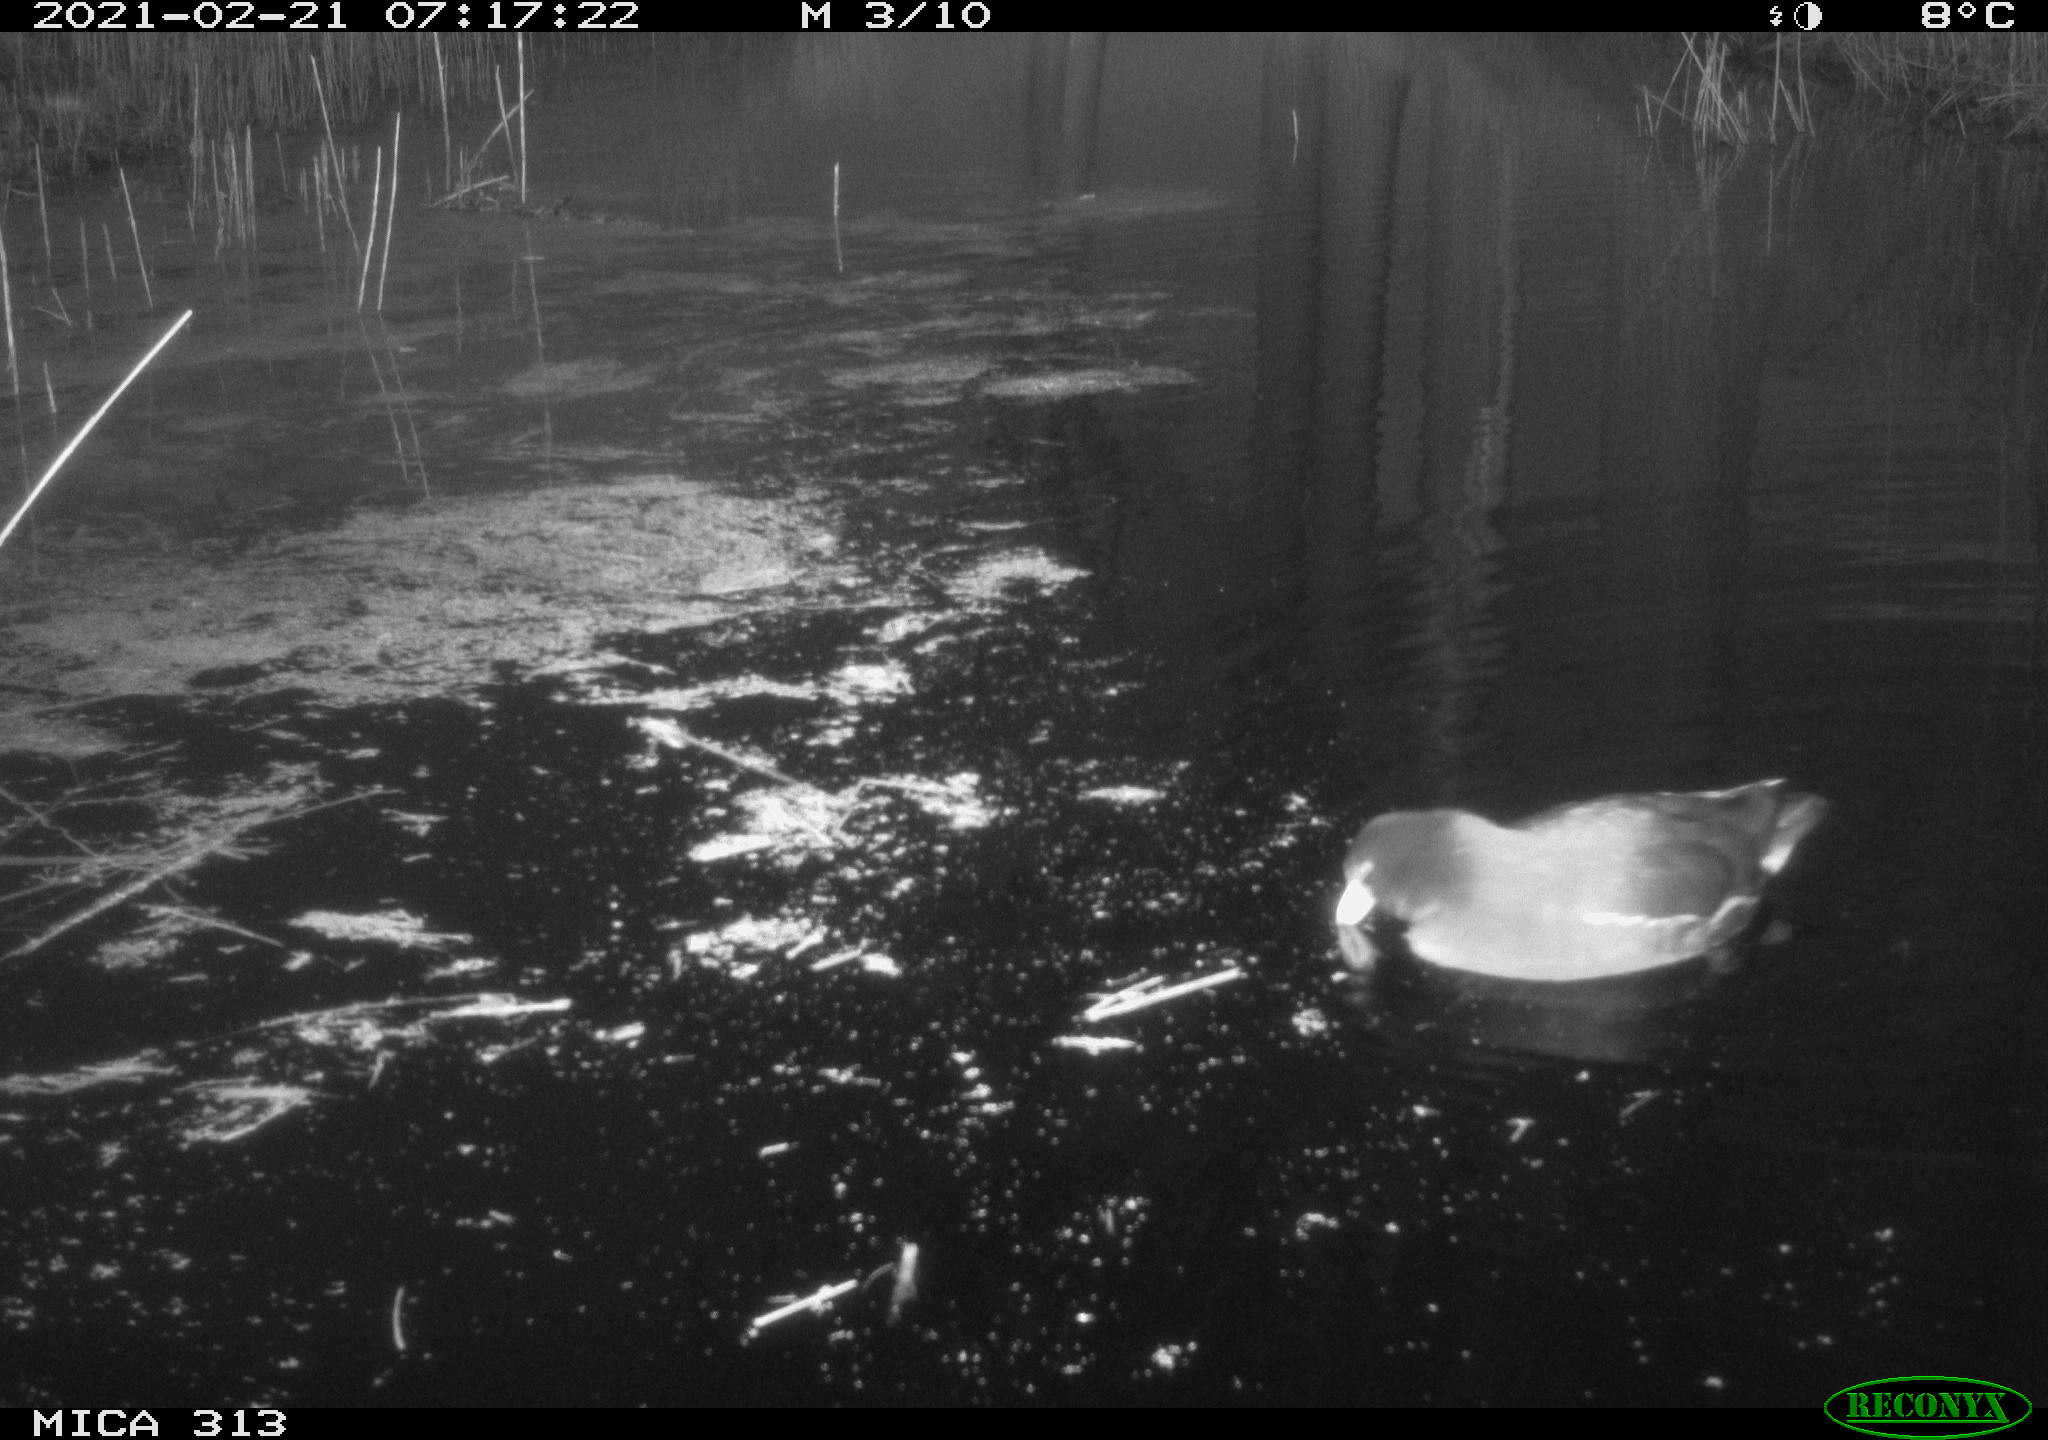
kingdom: Animalia
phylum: Chordata
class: Aves
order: Gruiformes
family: Rallidae
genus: Gallinula
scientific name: Gallinula chloropus
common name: Common moorhen
